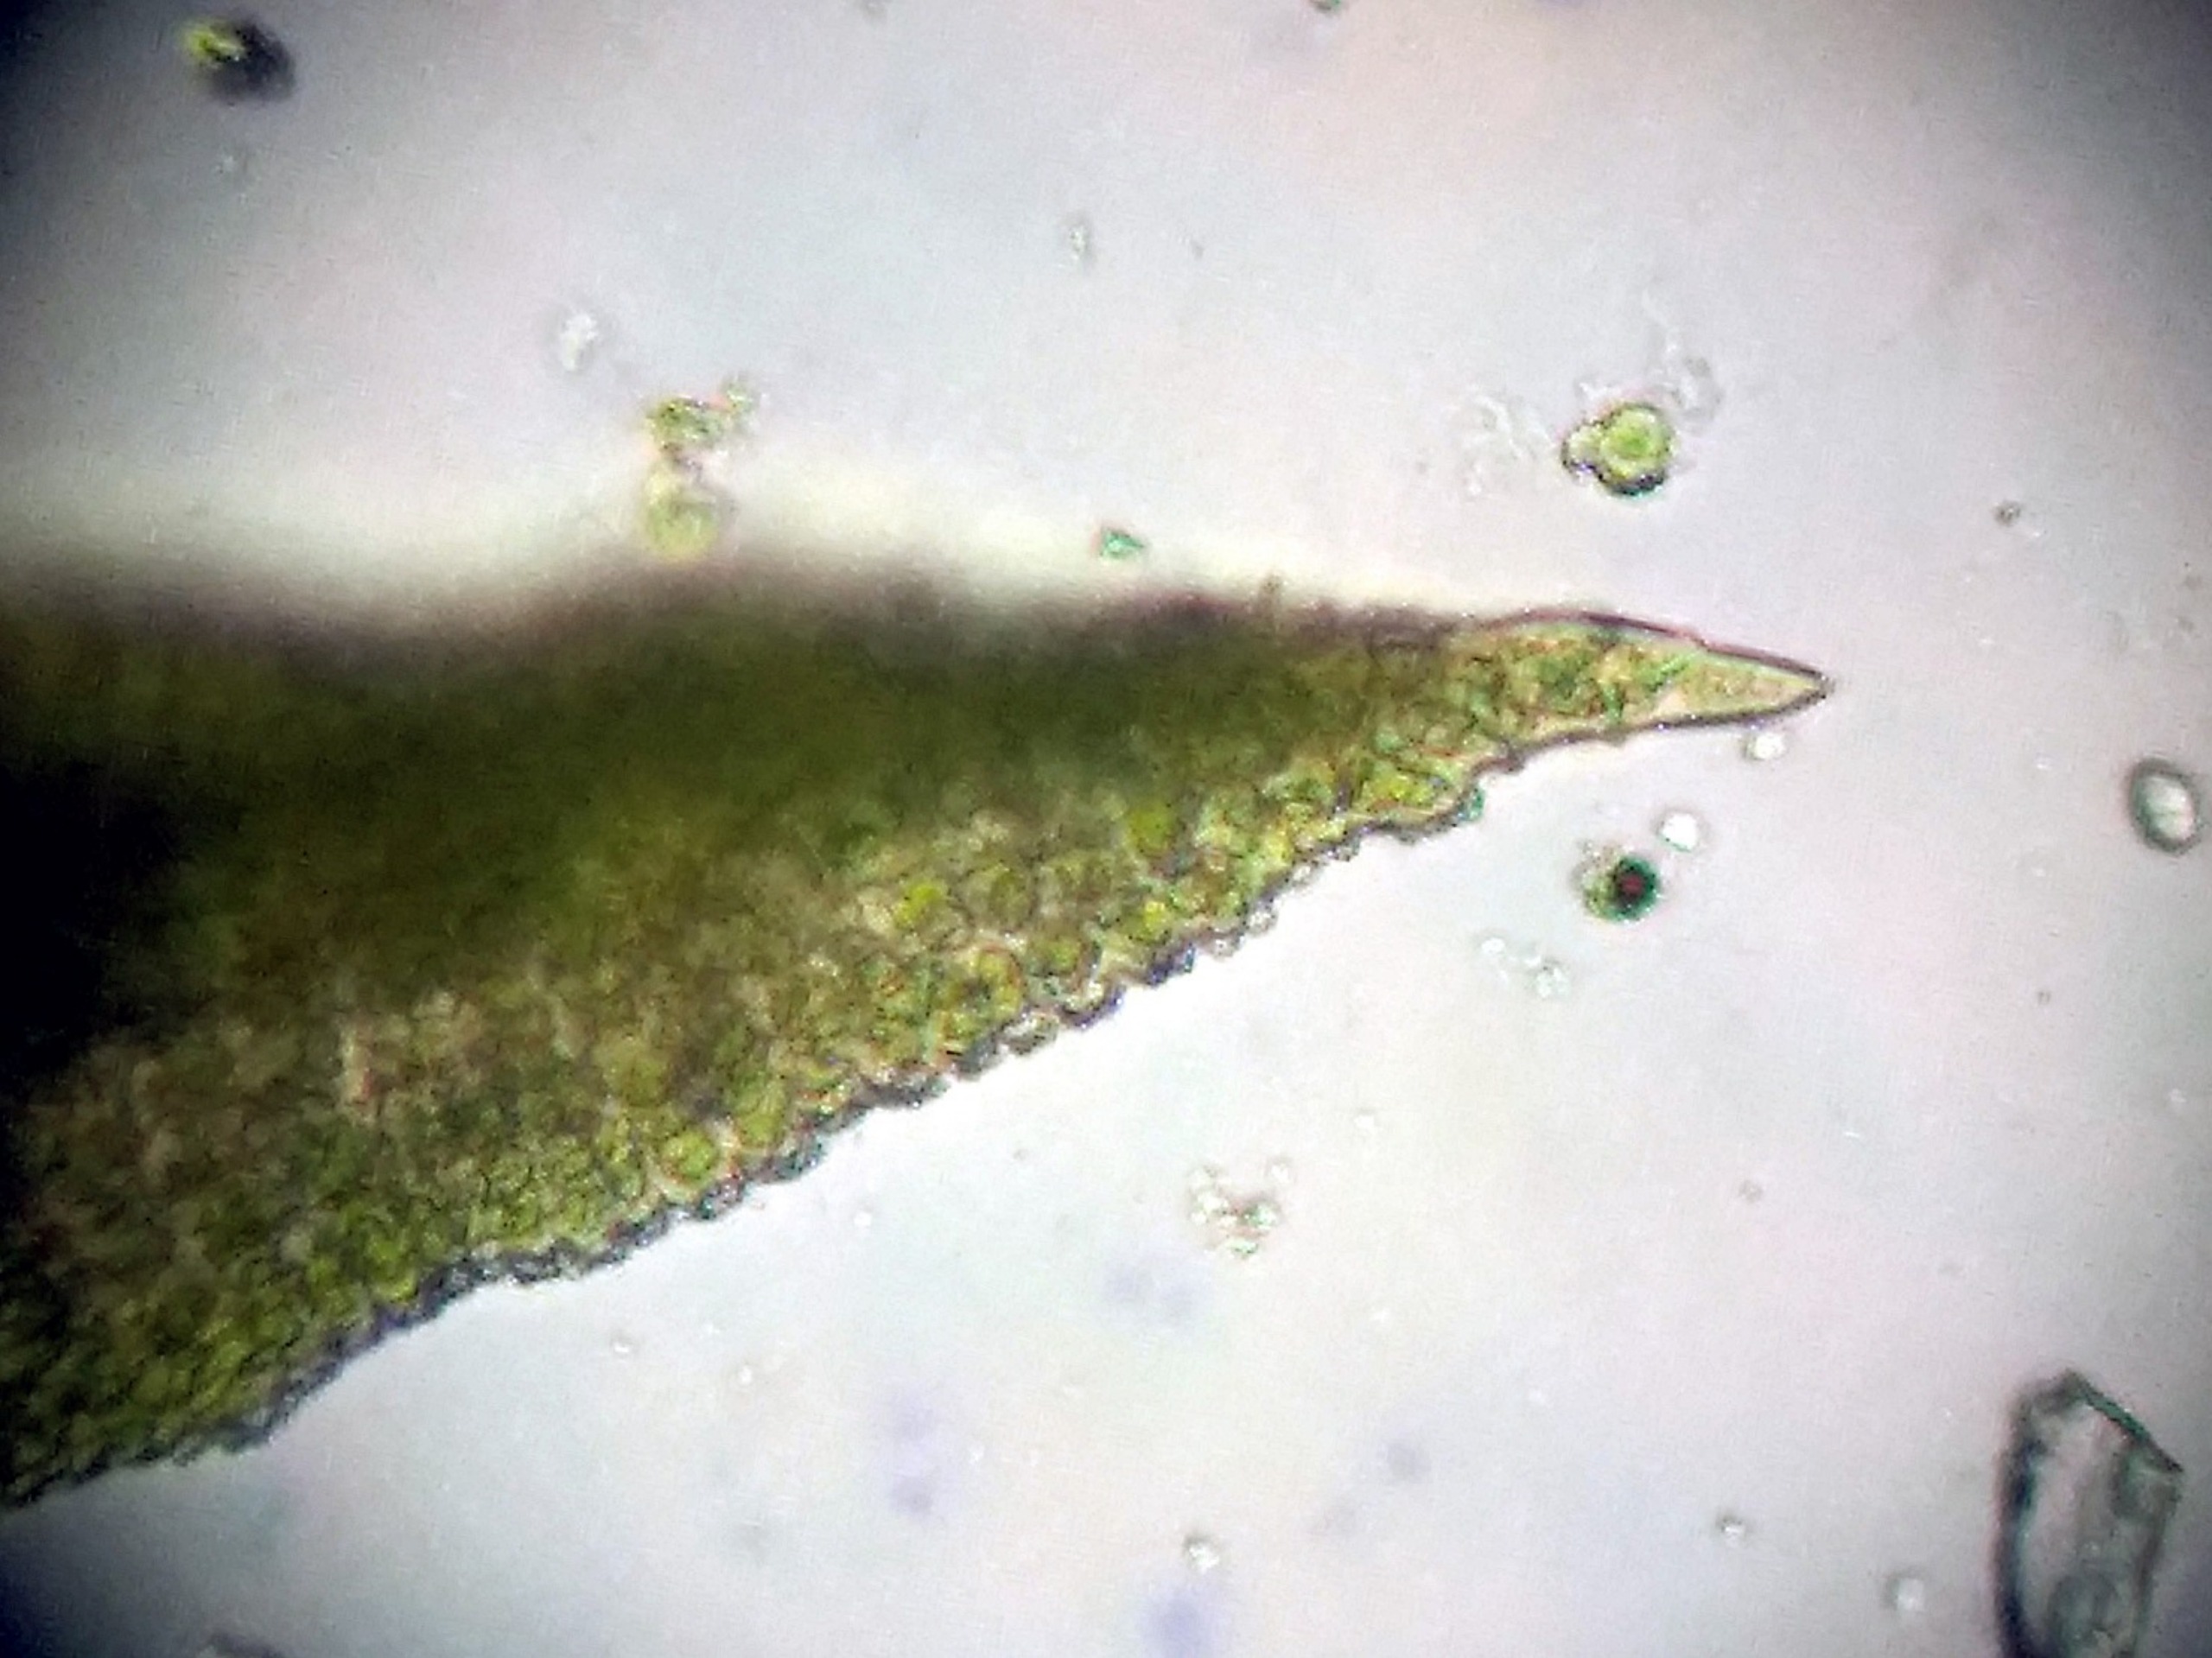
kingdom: Plantae
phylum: Bryophyta
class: Bryopsida
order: Pottiales
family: Pottiaceae
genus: Bryoerythrophyllum
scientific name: Bryoerythrophyllum recurvirostrum
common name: Rød gammelblad
